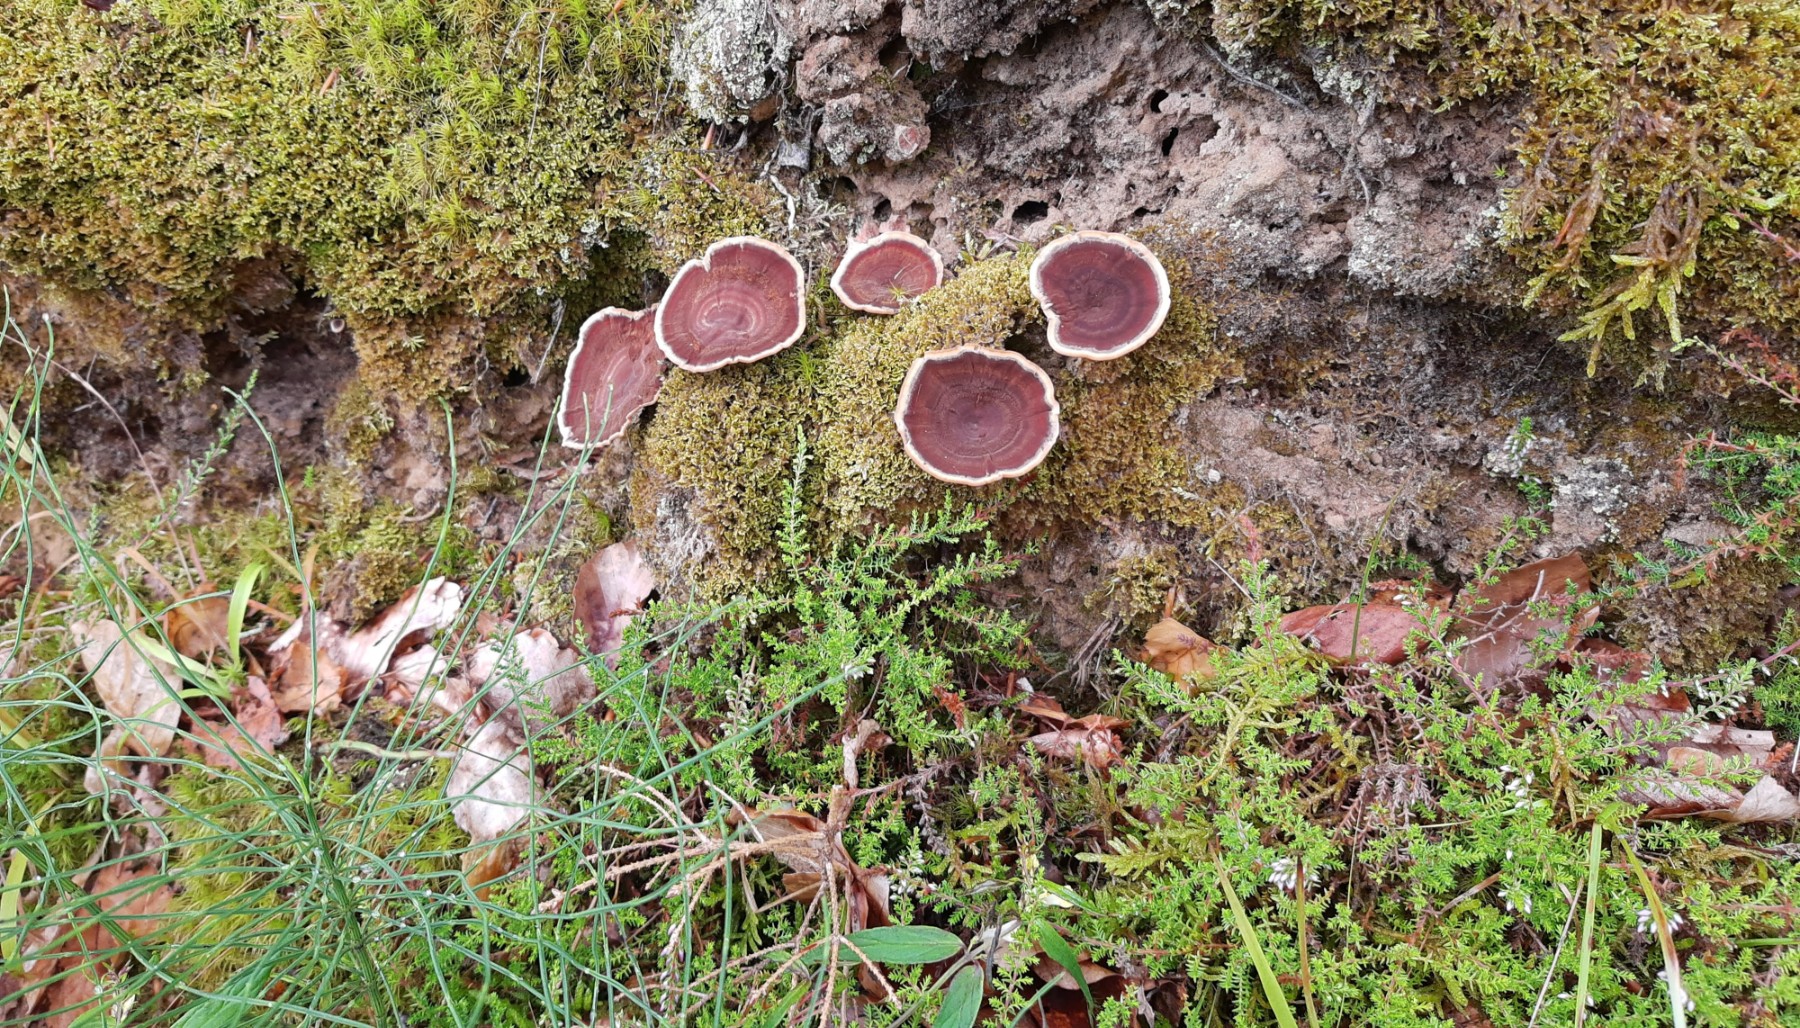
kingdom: Fungi
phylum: Basidiomycota
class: Agaricomycetes
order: Hymenochaetales
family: Hymenochaetaceae
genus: Coltricia
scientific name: Coltricia perennis
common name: almindelig sandporesvamp
